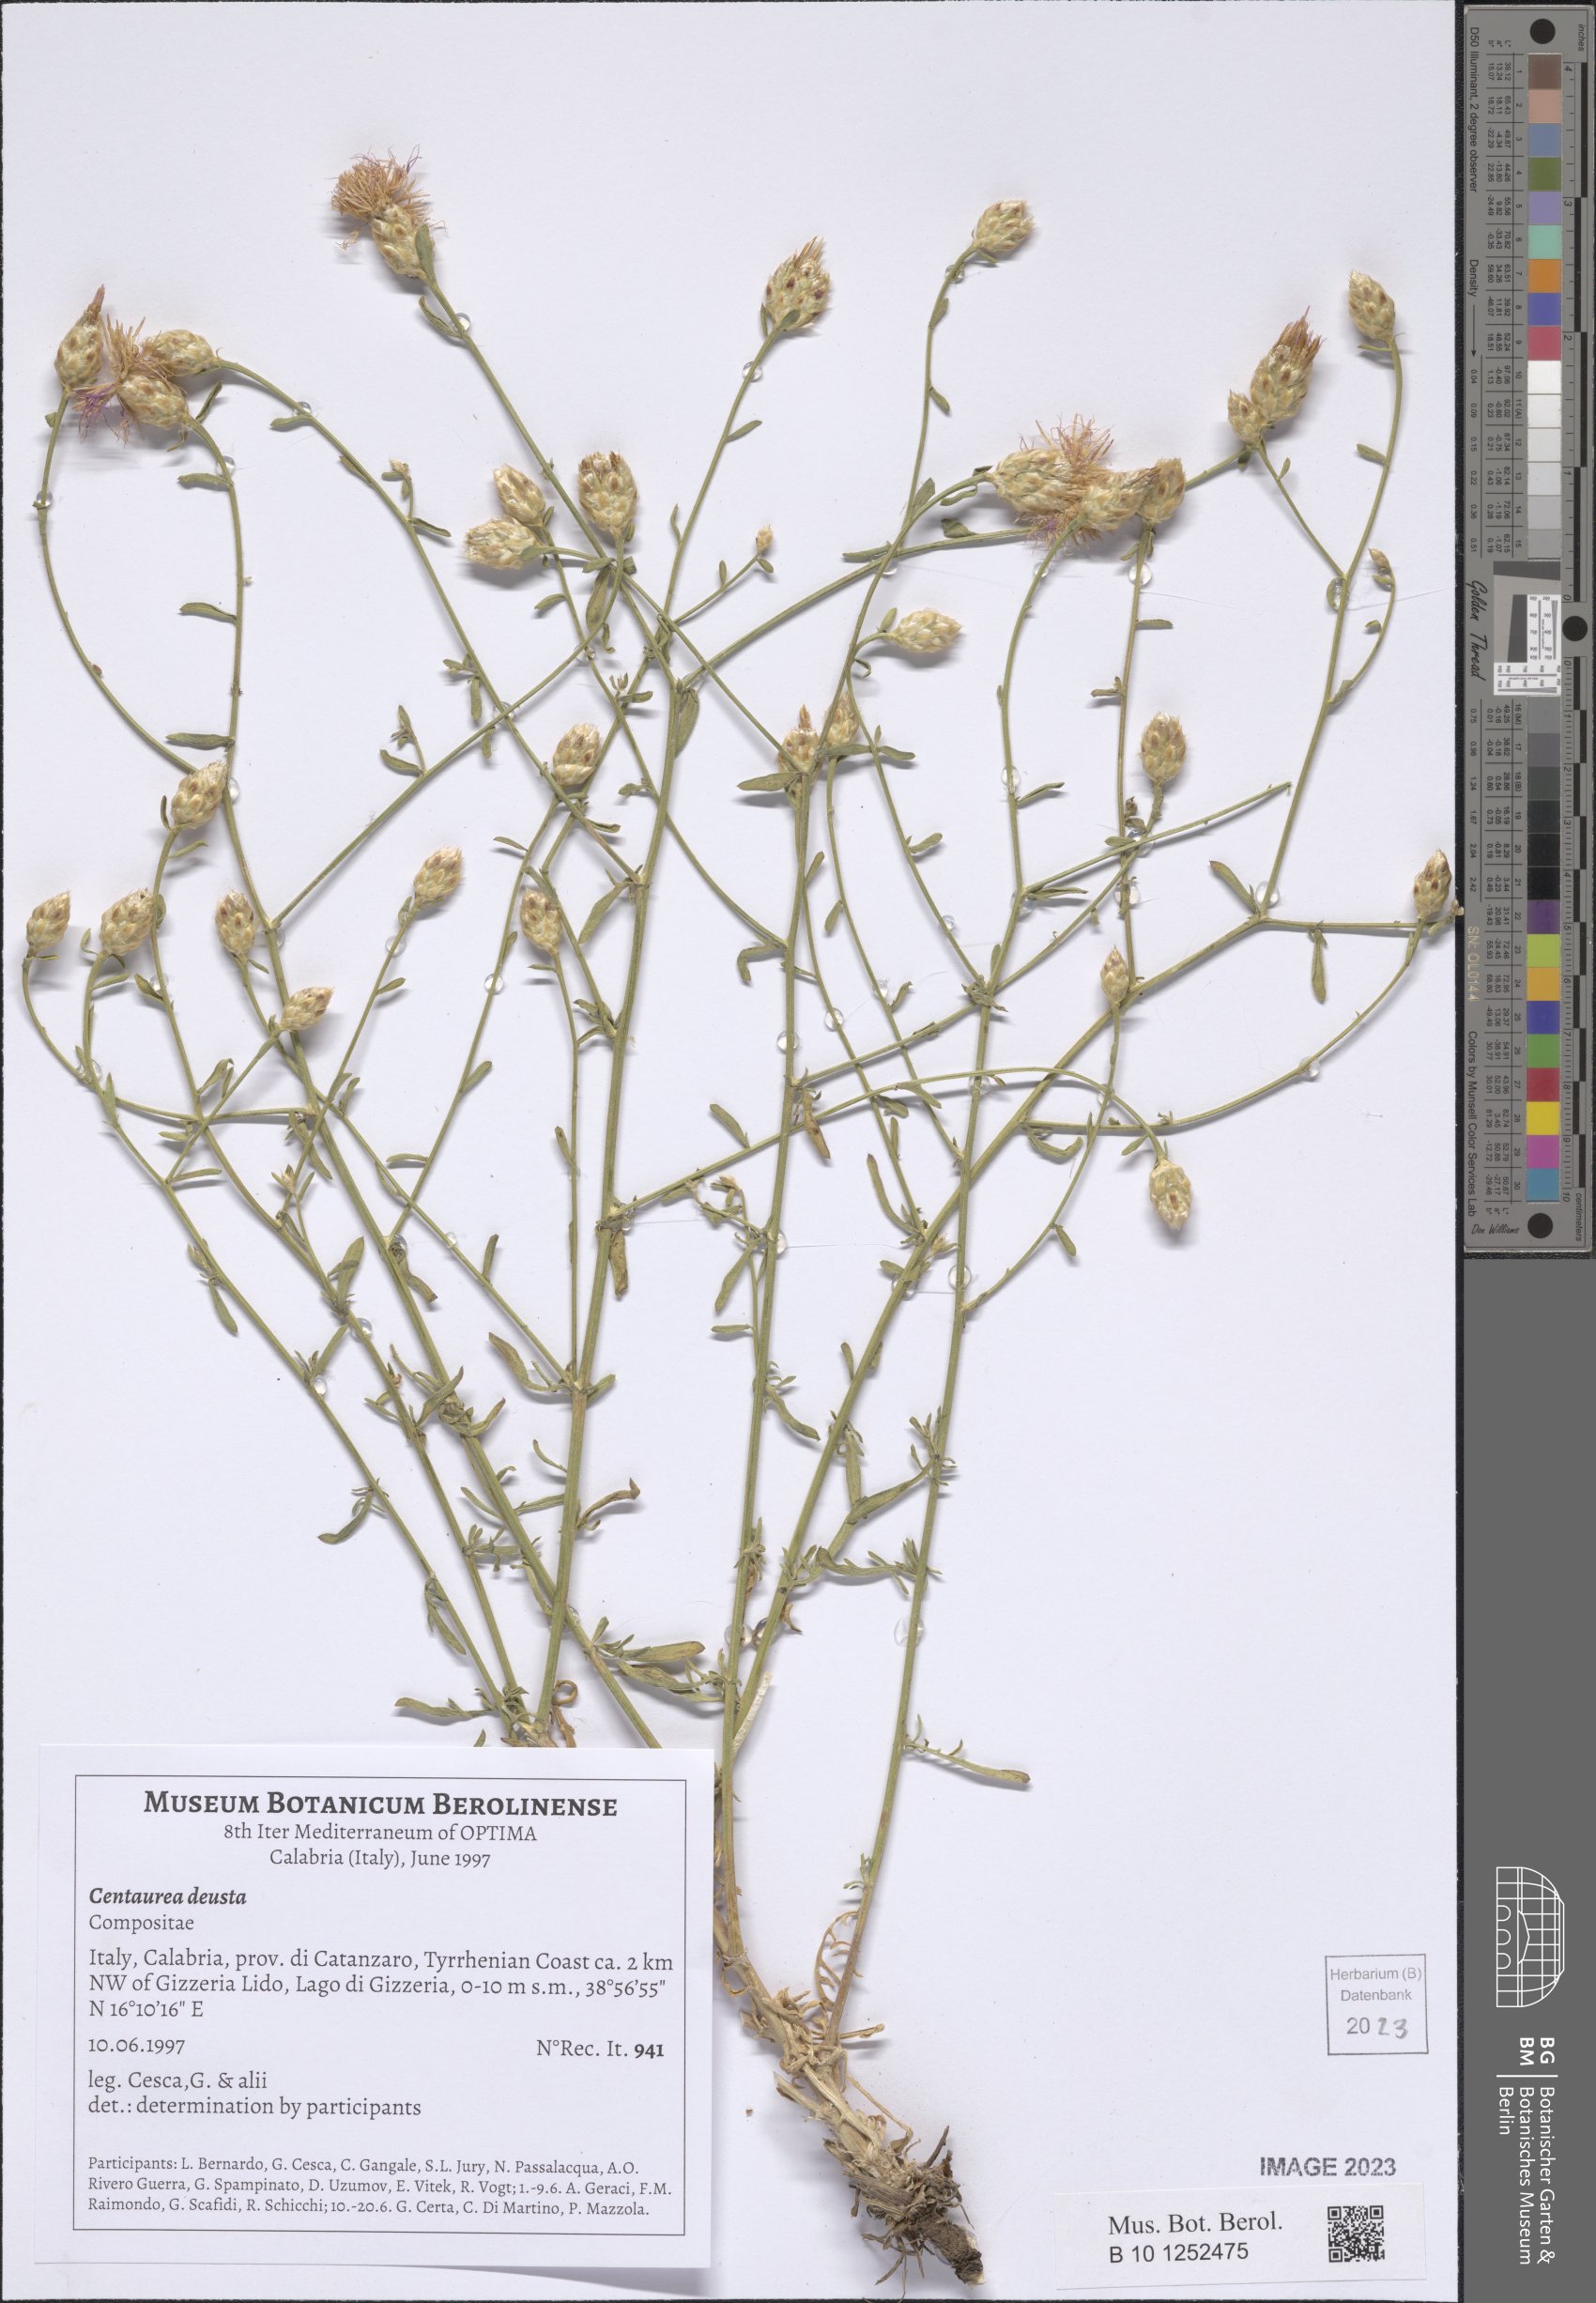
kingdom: Plantae
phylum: Tracheophyta
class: Magnoliopsida
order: Asterales
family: Asteraceae
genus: Centaurea
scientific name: Centaurea deusta
